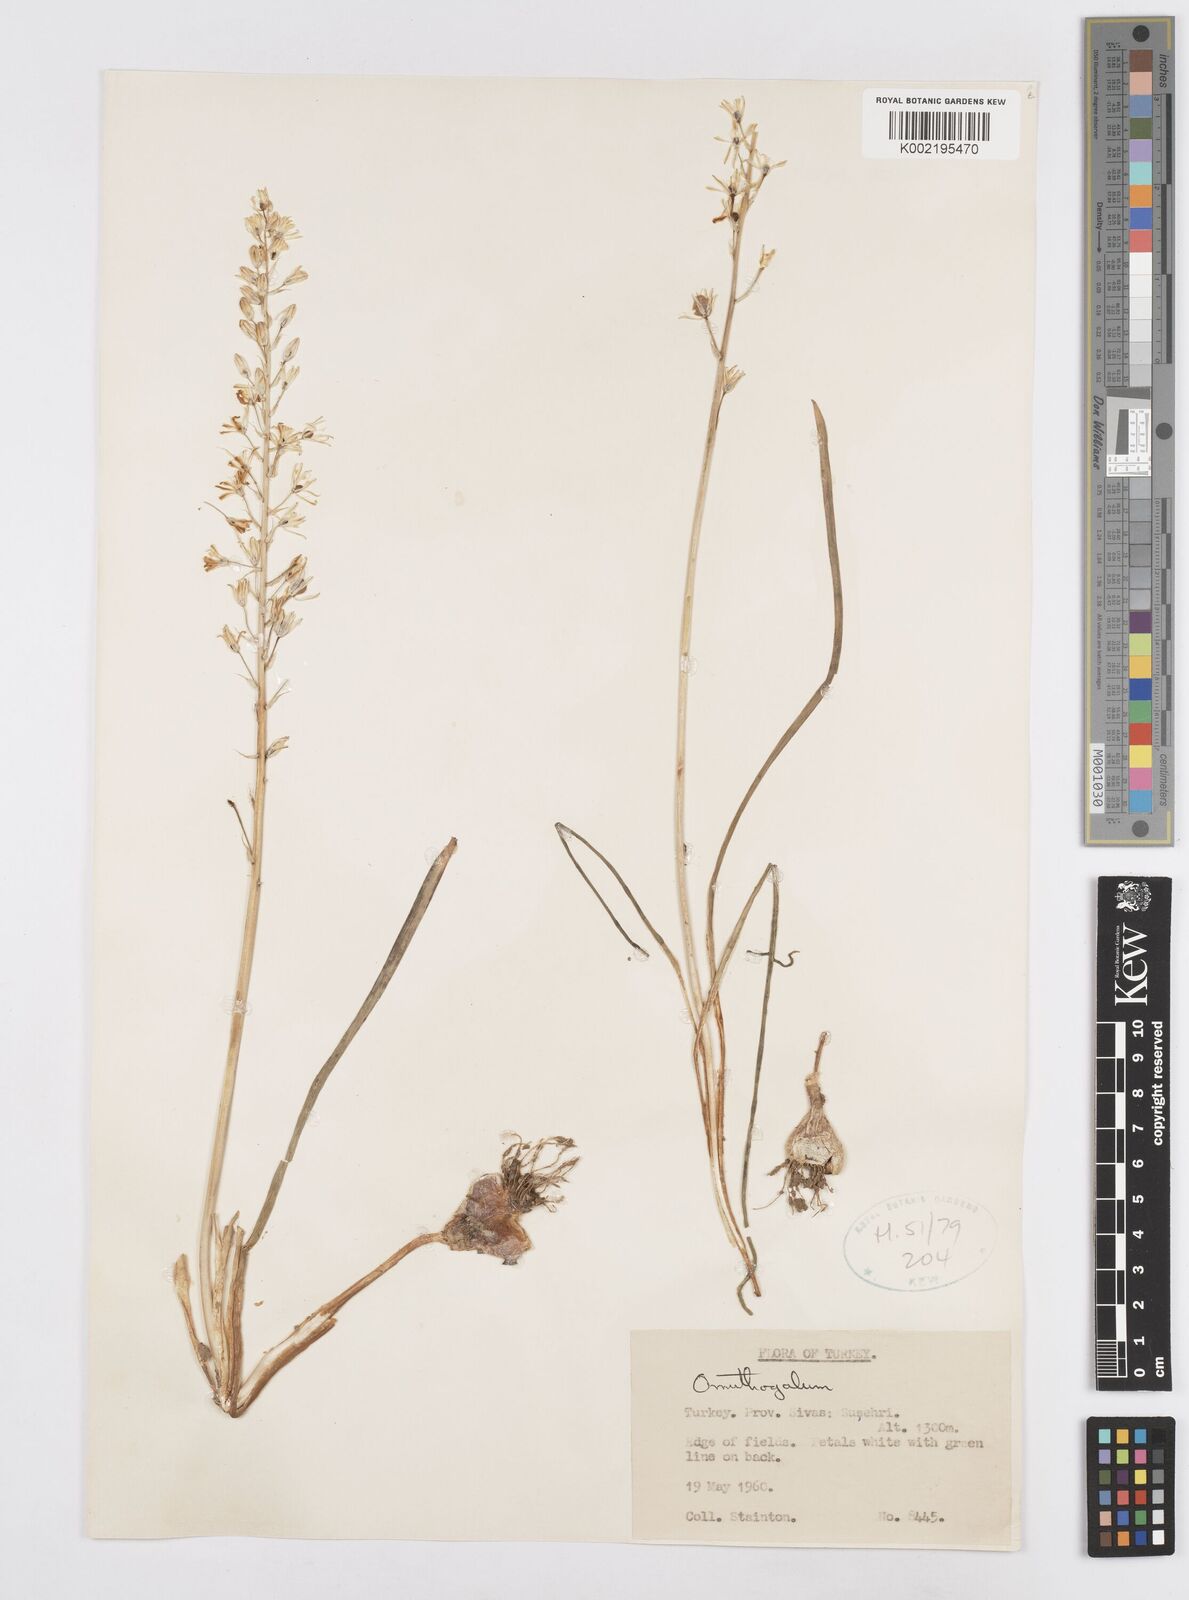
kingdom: Plantae
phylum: Tracheophyta
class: Liliopsida
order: Asparagales
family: Asparagaceae
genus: Ornithogalum
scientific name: Ornithogalum
